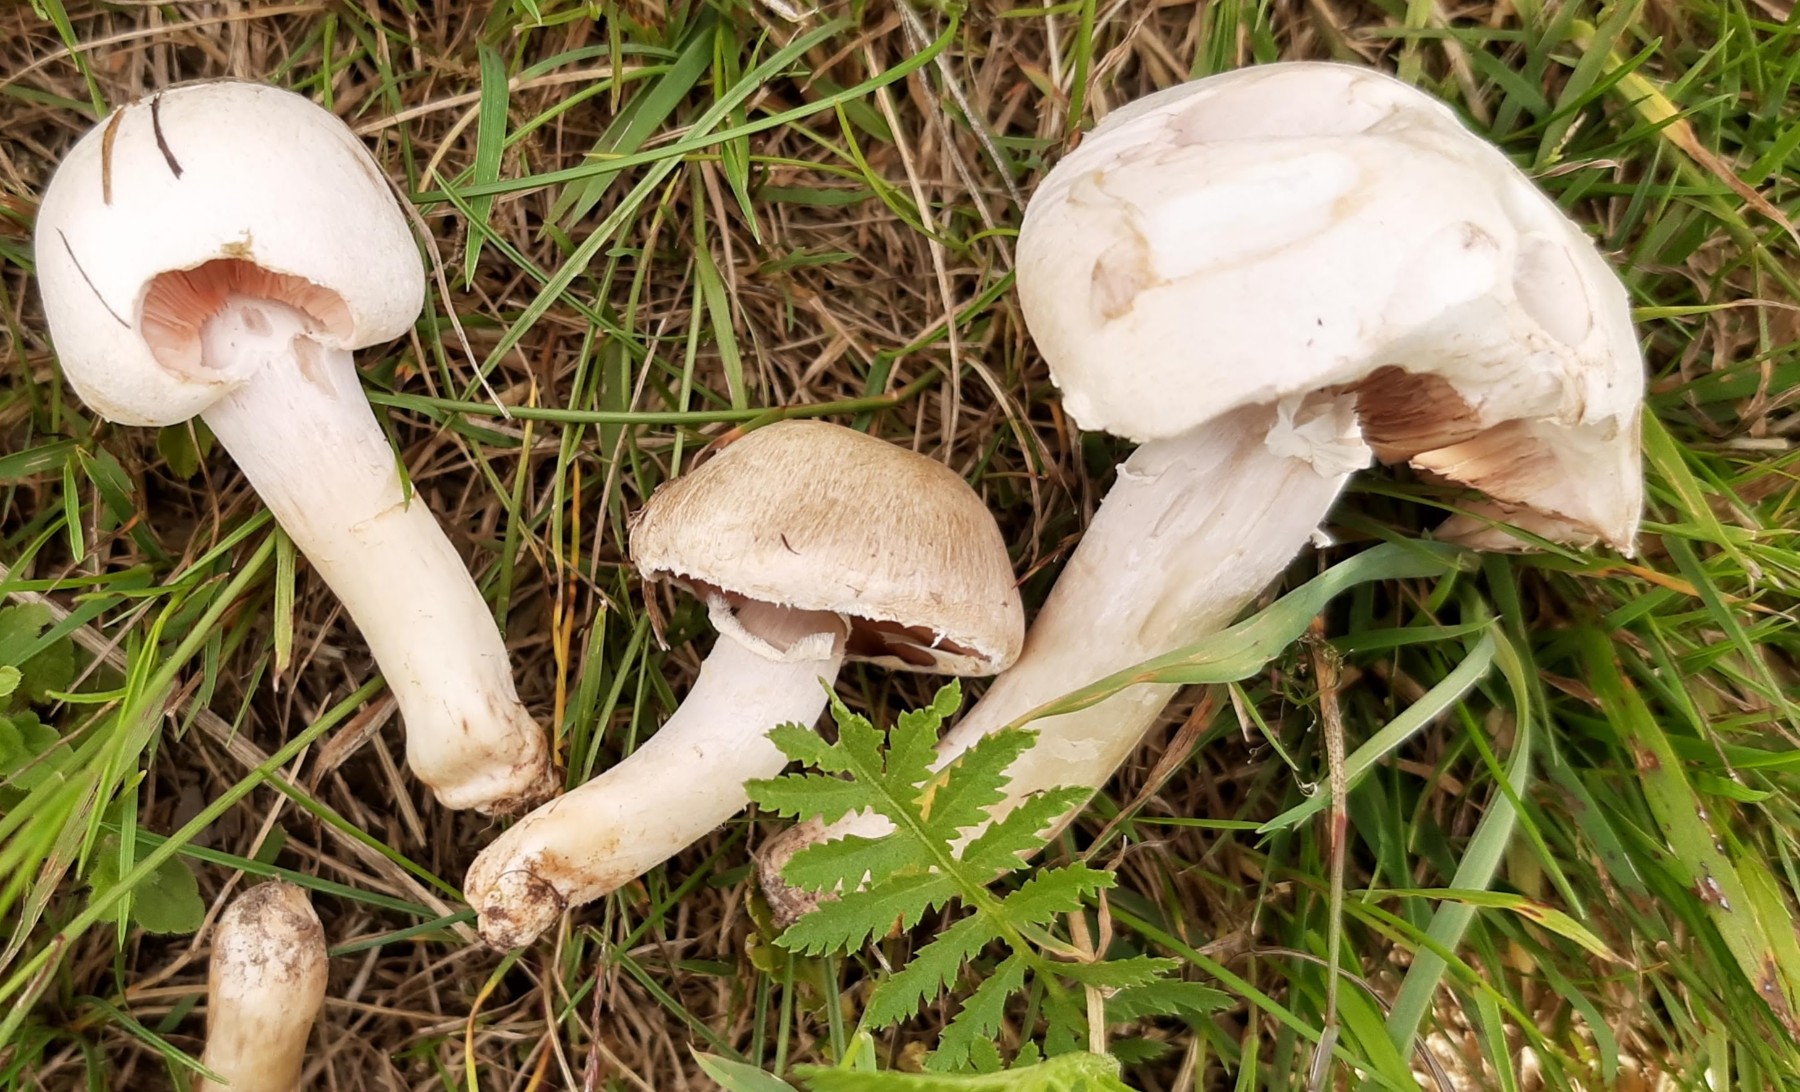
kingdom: Fungi
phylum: Basidiomycota
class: Agaricomycetes
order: Agaricales
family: Agaricaceae
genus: Agaricus
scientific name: Agaricus campestris
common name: mark-champignon
